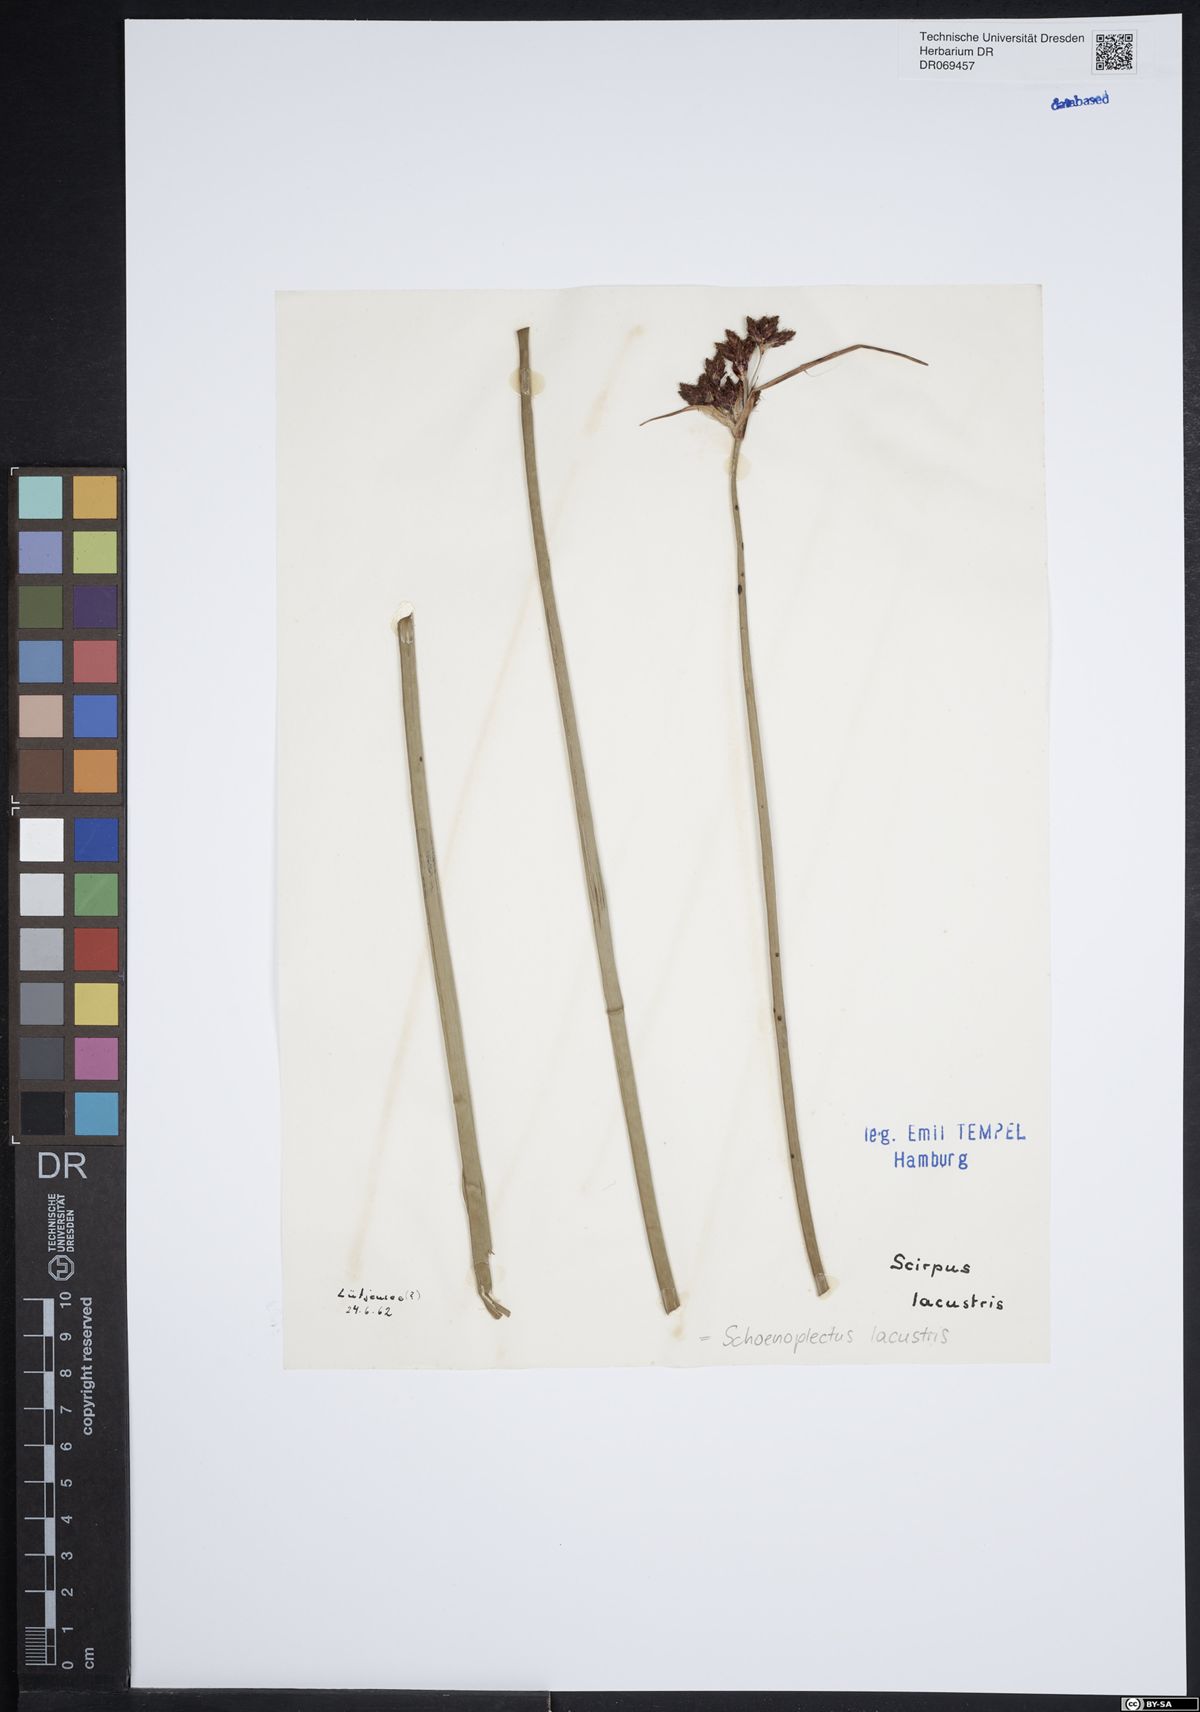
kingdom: Plantae
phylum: Tracheophyta
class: Liliopsida
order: Poales
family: Cyperaceae
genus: Schoenoplectus
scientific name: Schoenoplectus lacustris
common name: Common club-rush
